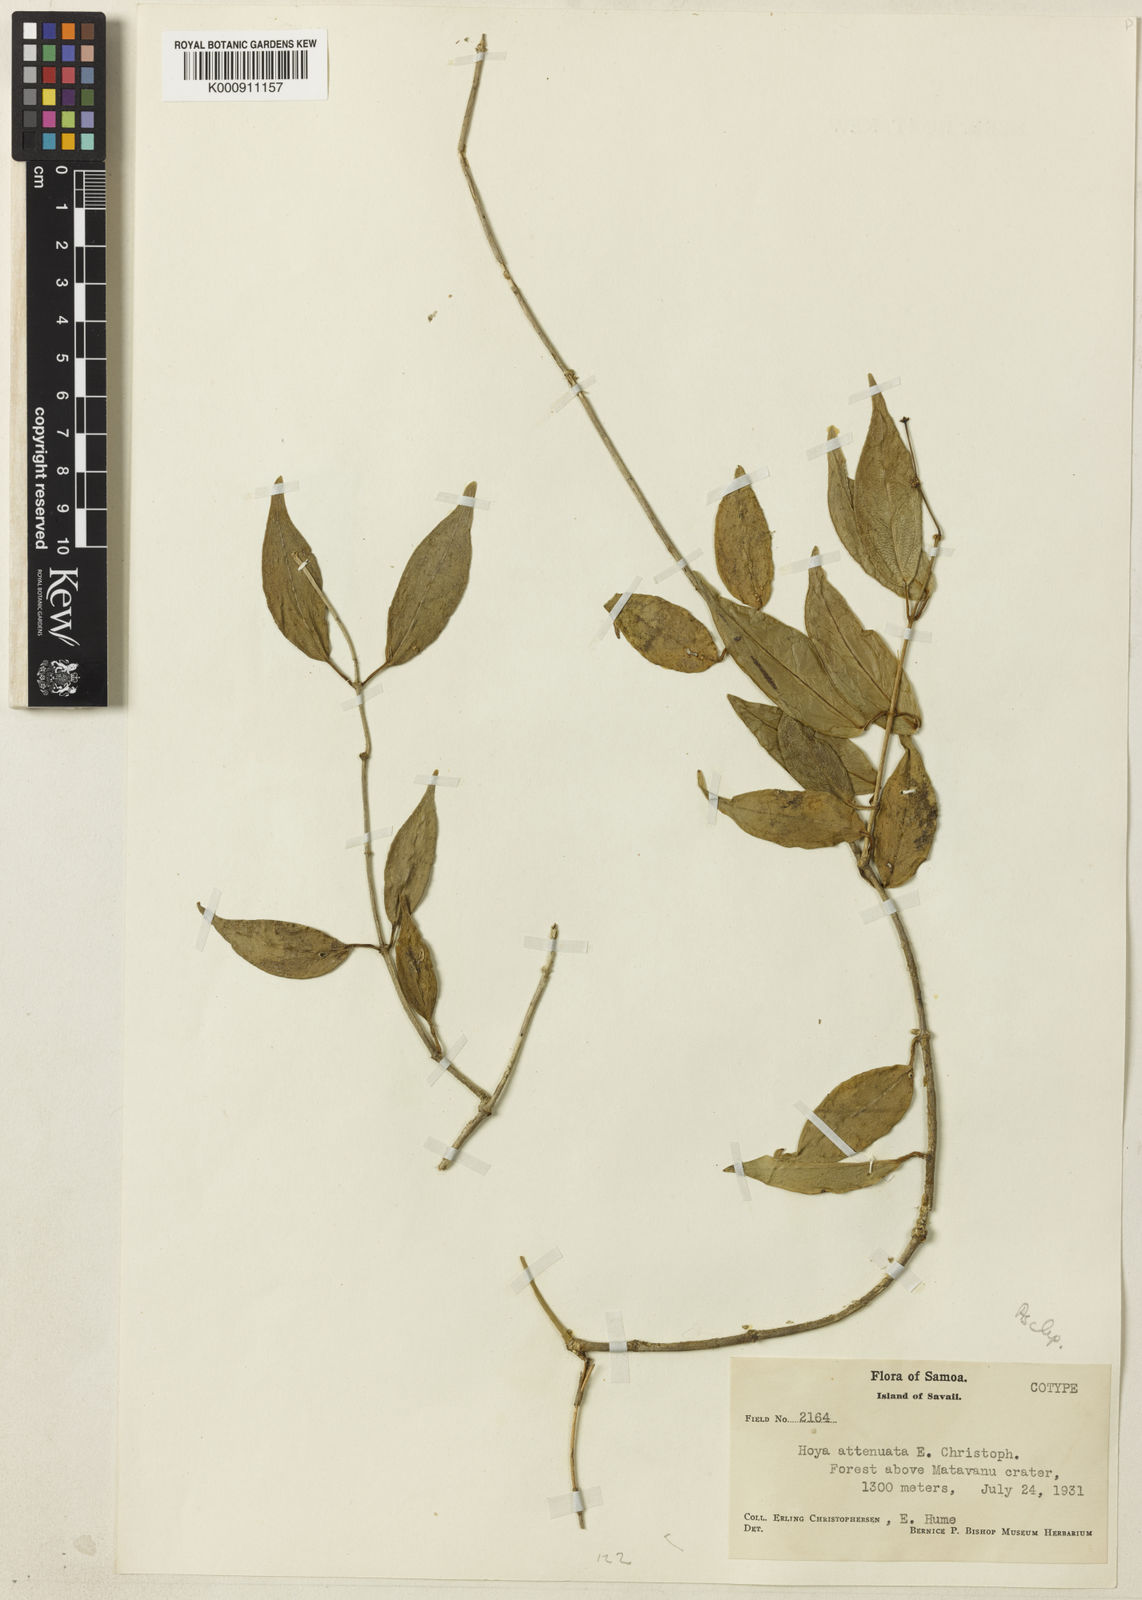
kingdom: Plantae
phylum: Tracheophyta
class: Magnoliopsida
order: Gentianales
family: Apocynaceae
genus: Hoya
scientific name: Hoya filiformis
